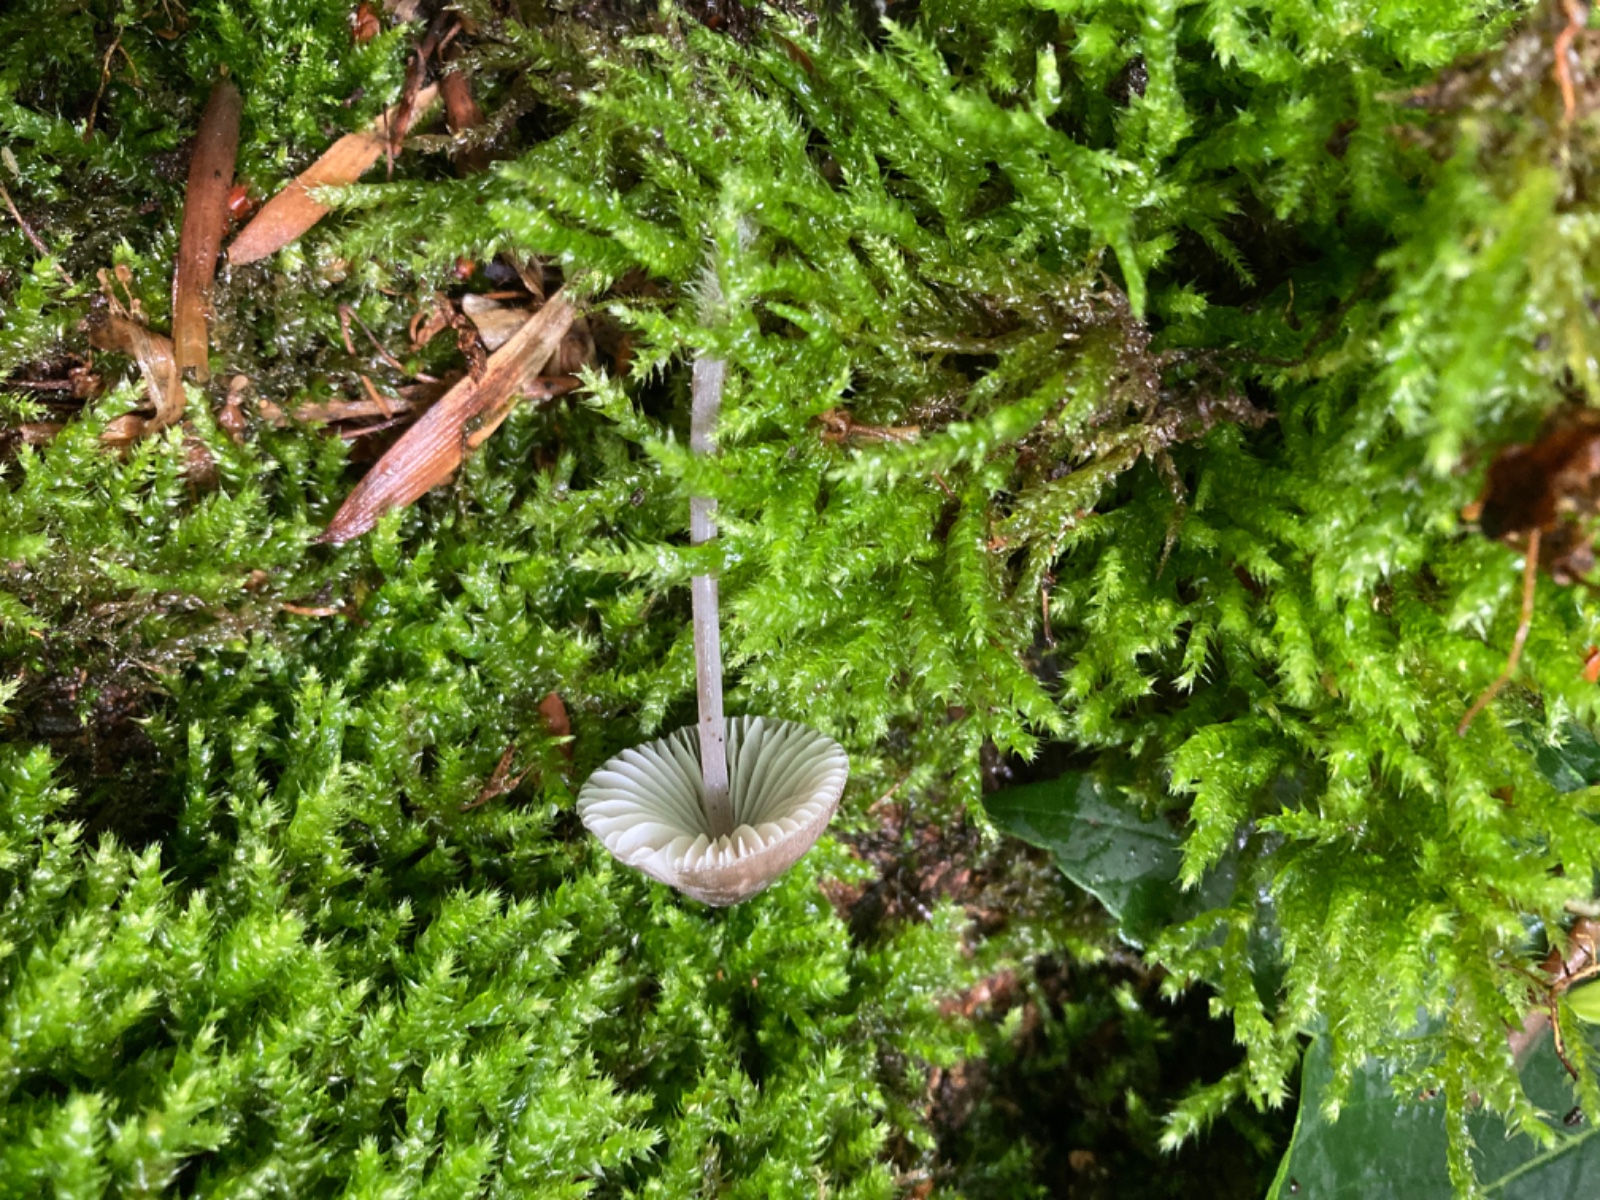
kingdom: Fungi
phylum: Basidiomycota
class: Agaricomycetes
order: Agaricales
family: Mycenaceae
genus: Mycena
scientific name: Mycena abramsii
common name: sommer-huesvamp
